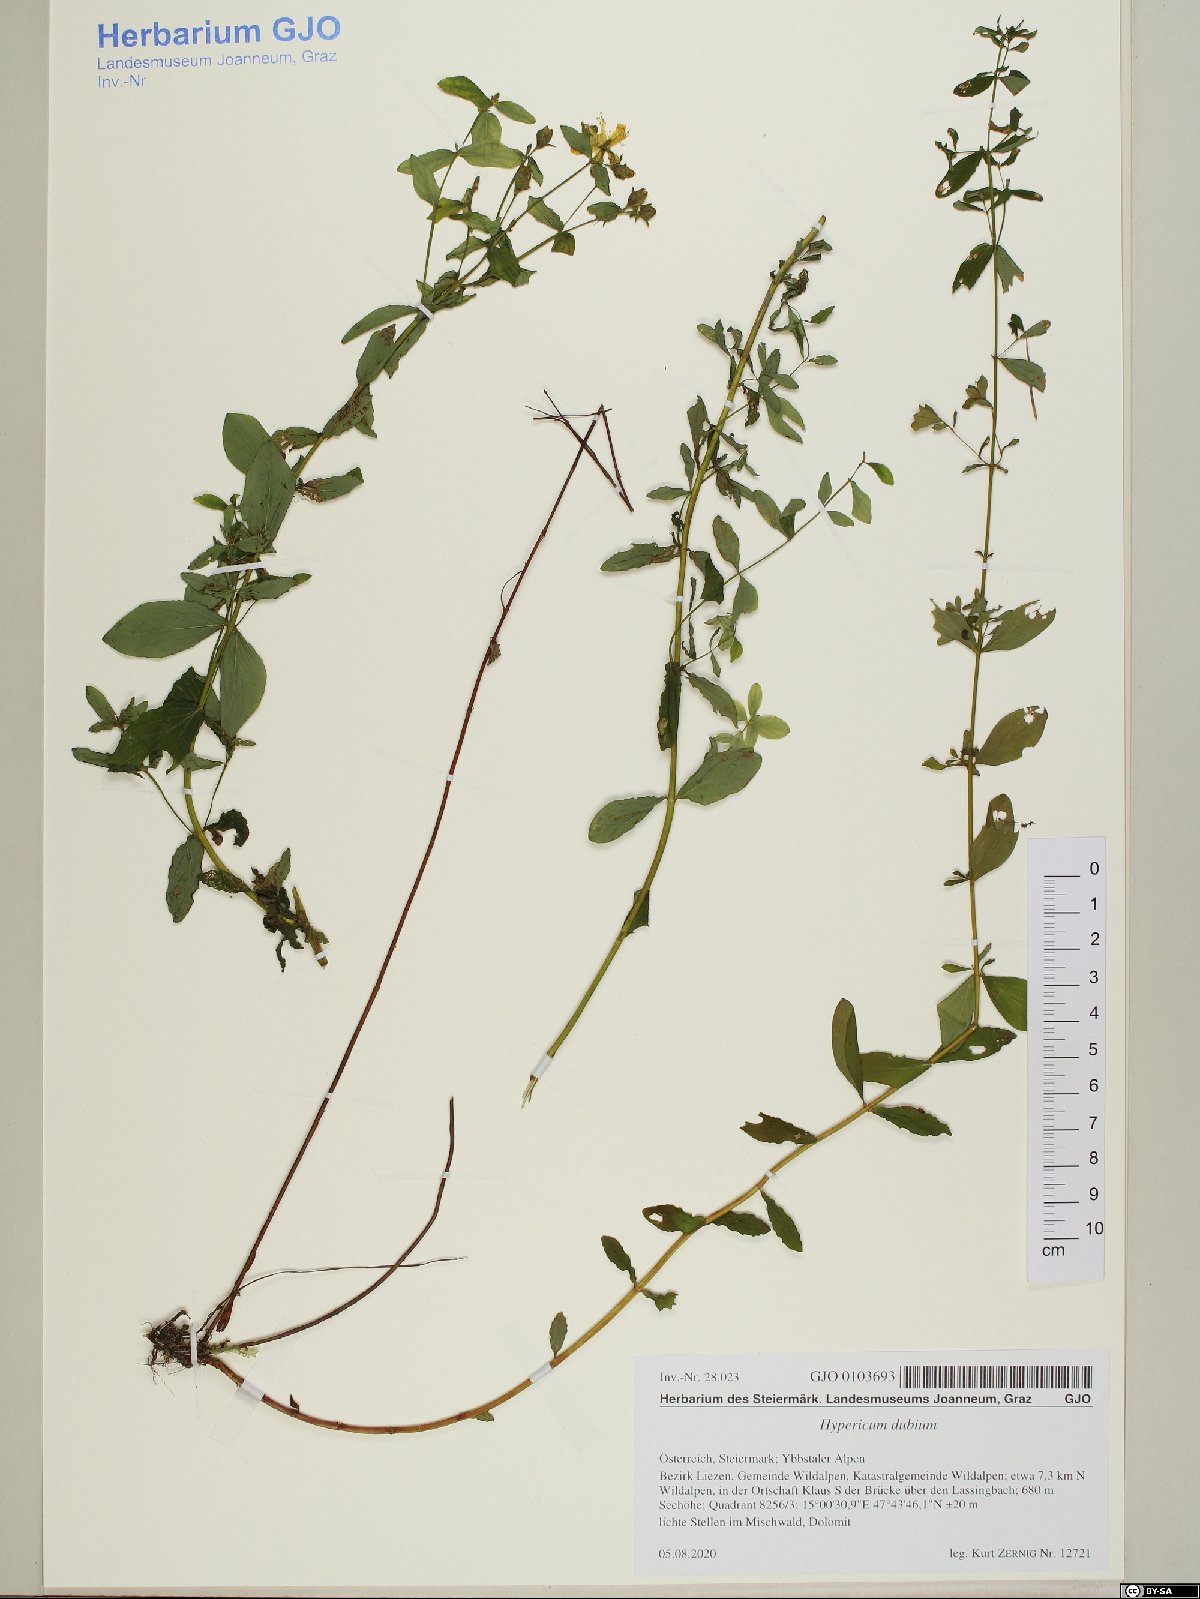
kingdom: Plantae
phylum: Tracheophyta
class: Magnoliopsida
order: Malpighiales
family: Hypericaceae
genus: Hypericum
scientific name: Hypericum dubium
